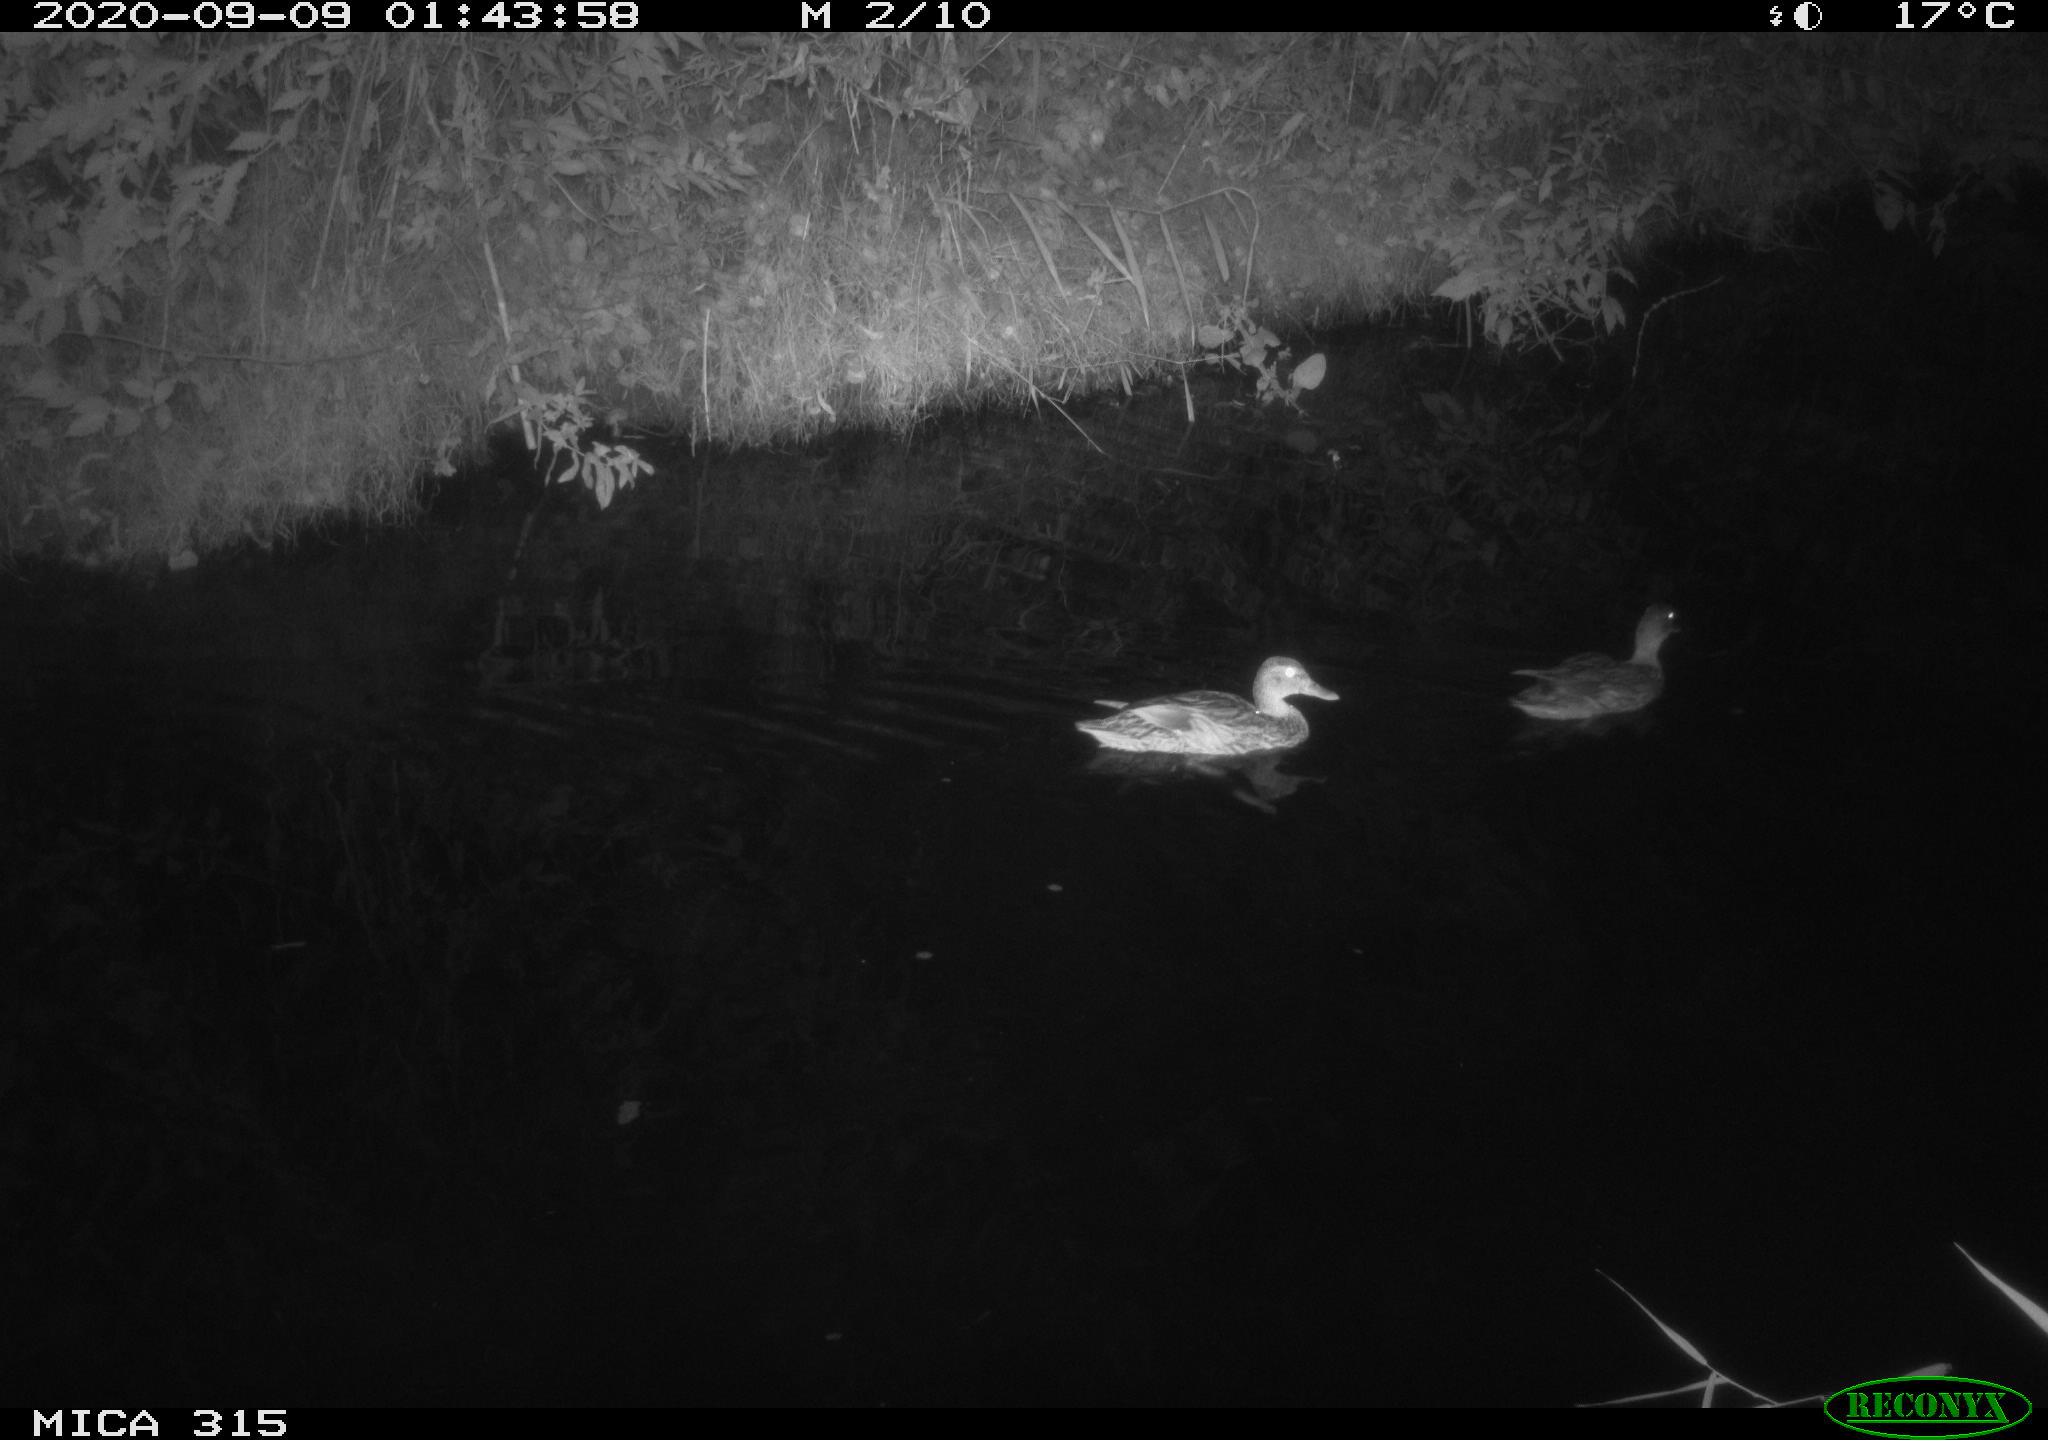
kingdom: Animalia
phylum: Chordata
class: Aves
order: Anseriformes
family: Anatidae
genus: Anas
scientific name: Anas platyrhynchos
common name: Mallard
